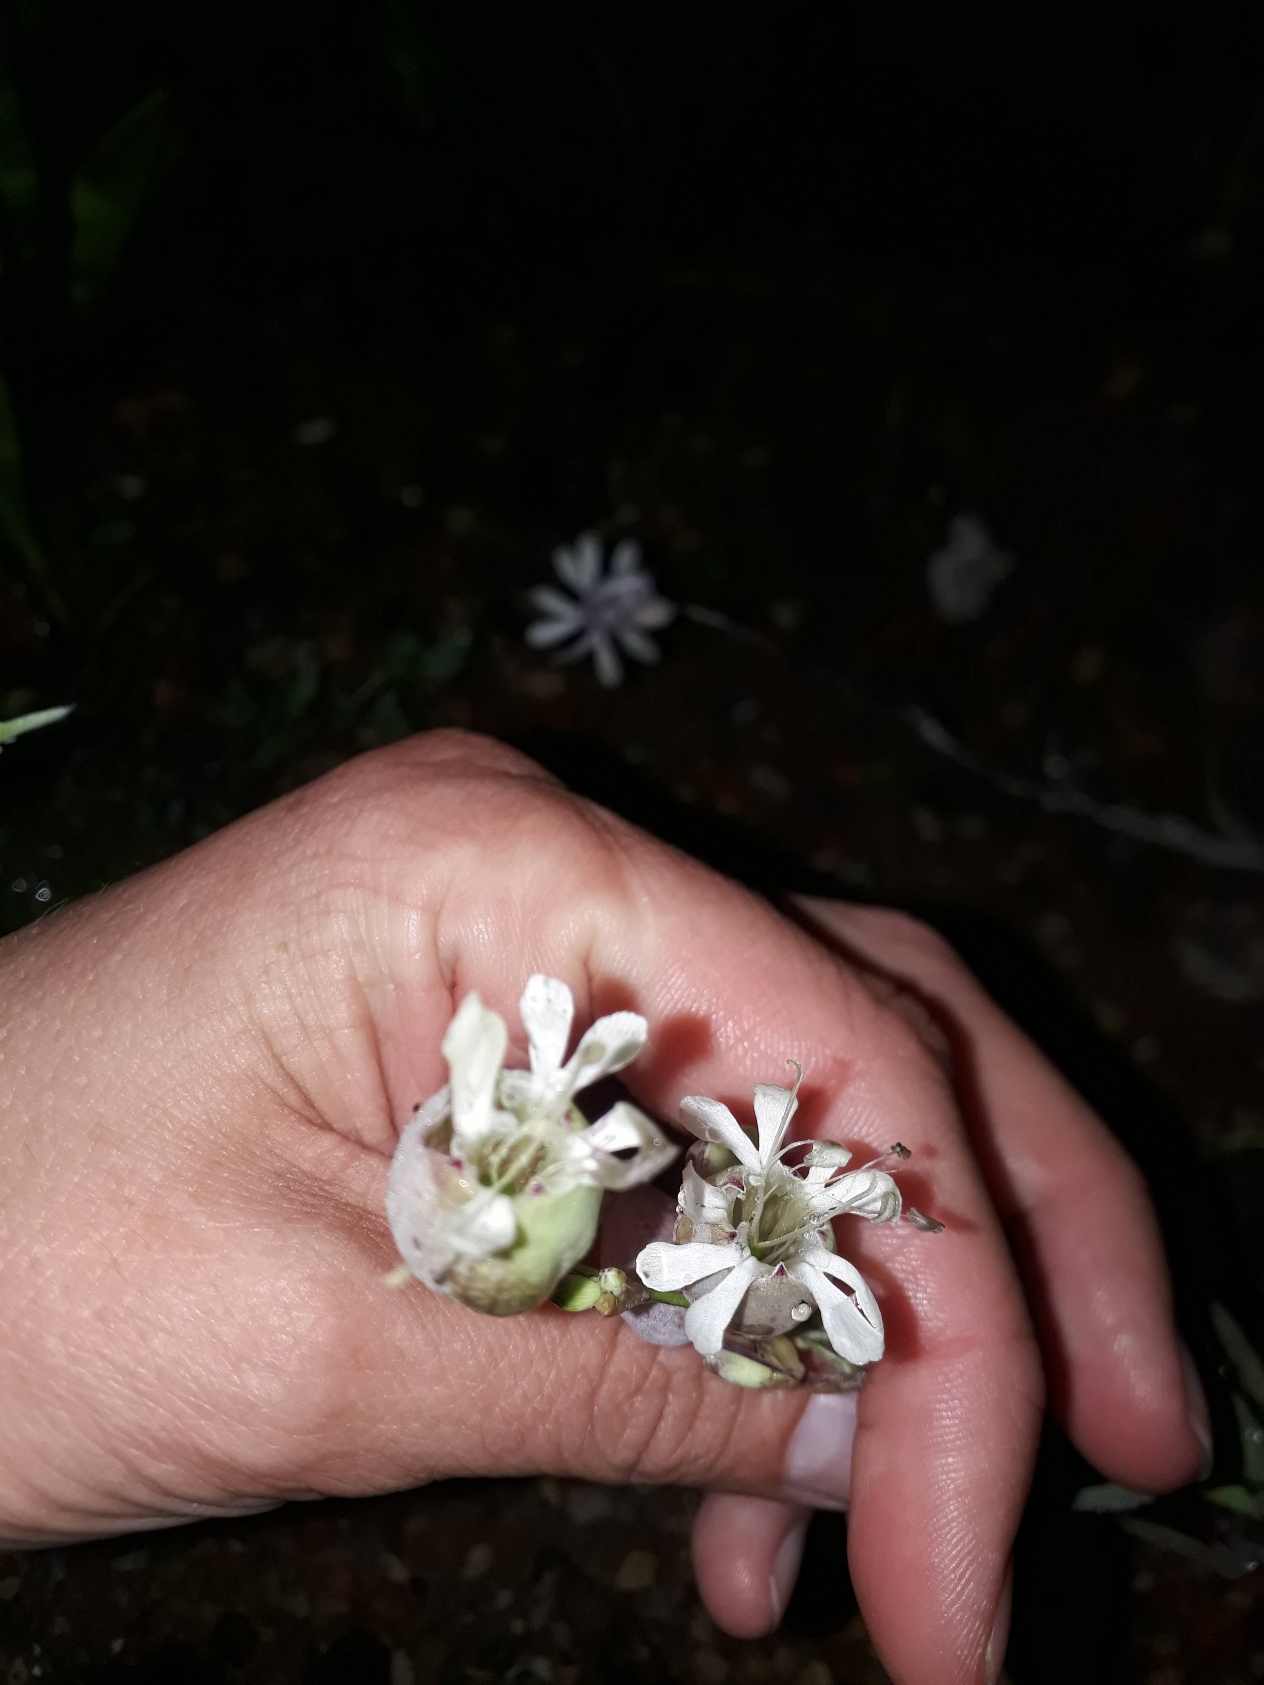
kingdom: Plantae
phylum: Tracheophyta
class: Magnoliopsida
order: Caryophyllales
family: Caryophyllaceae
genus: Silene
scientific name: Silene vulgaris
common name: Blæresmælde
